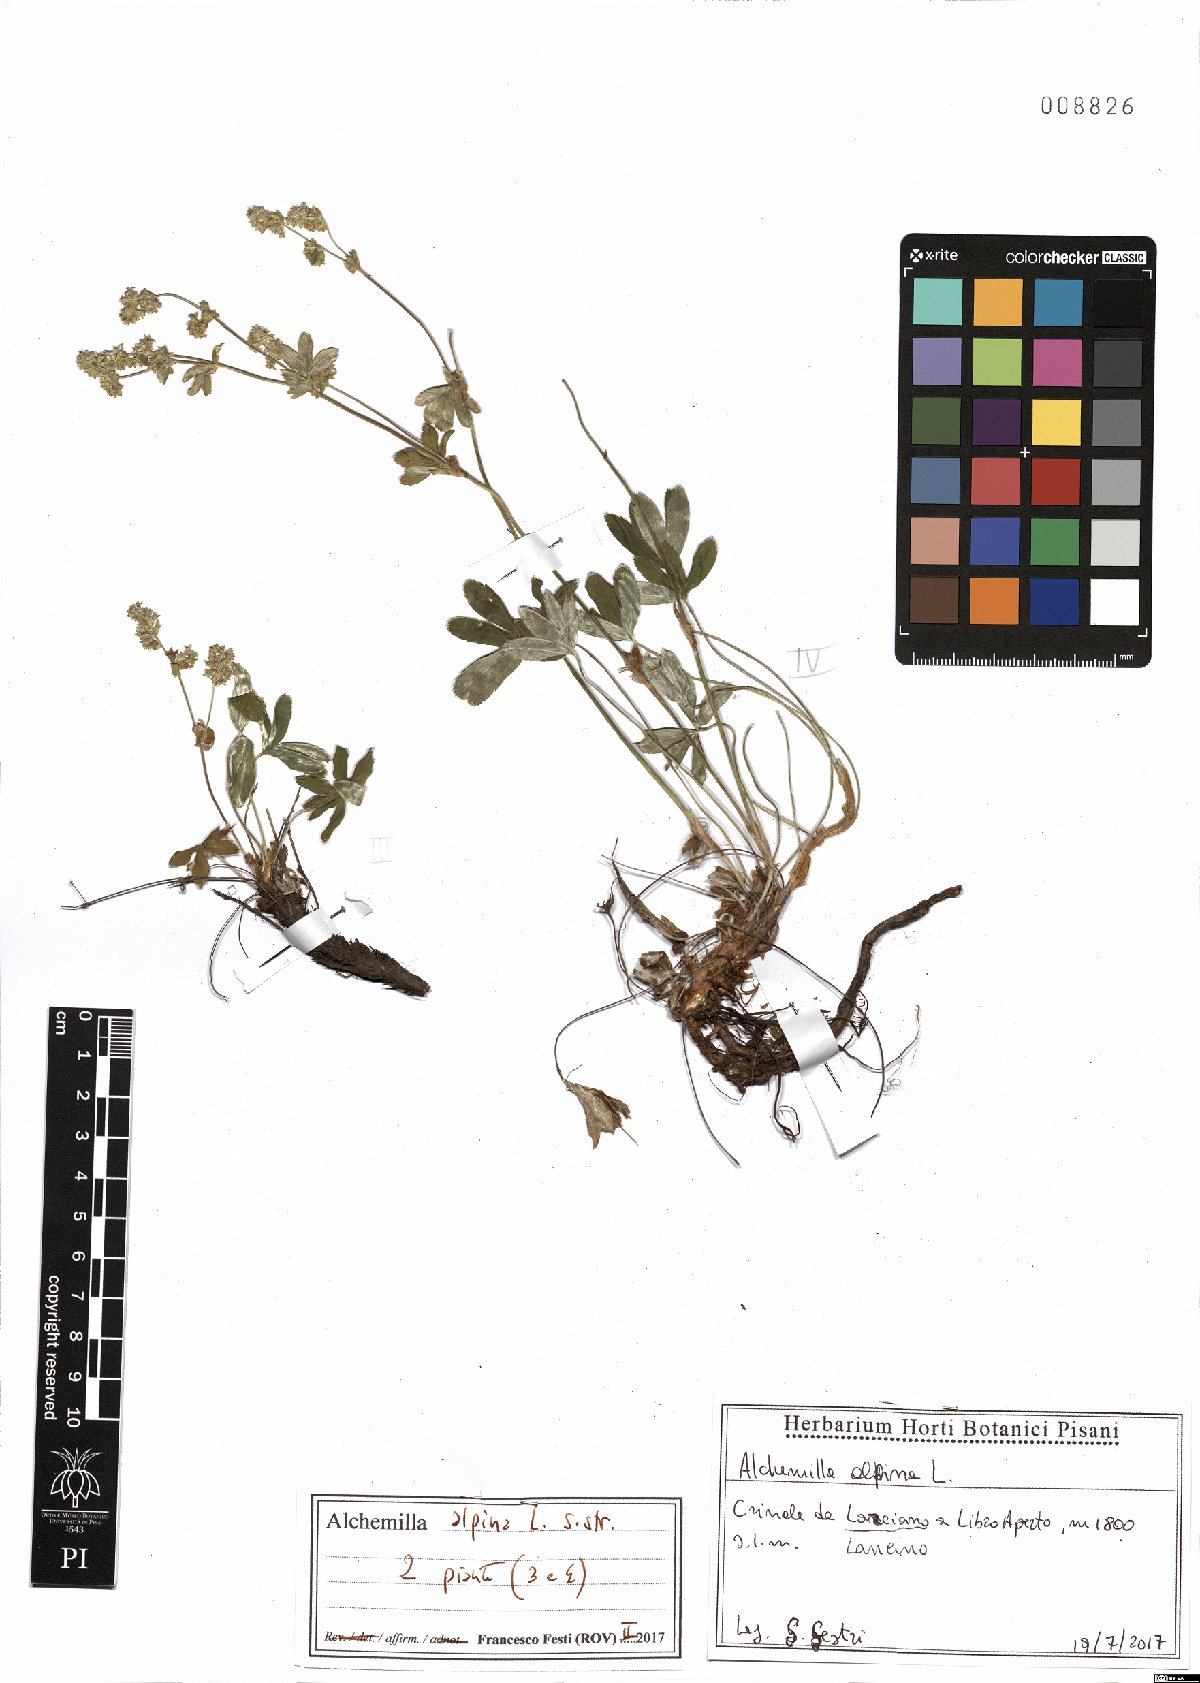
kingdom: Plantae
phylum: Tracheophyta
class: Magnoliopsida
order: Rosales
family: Rosaceae
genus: Alchemilla
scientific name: Alchemilla alpina
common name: Alpine lady's-mantle
